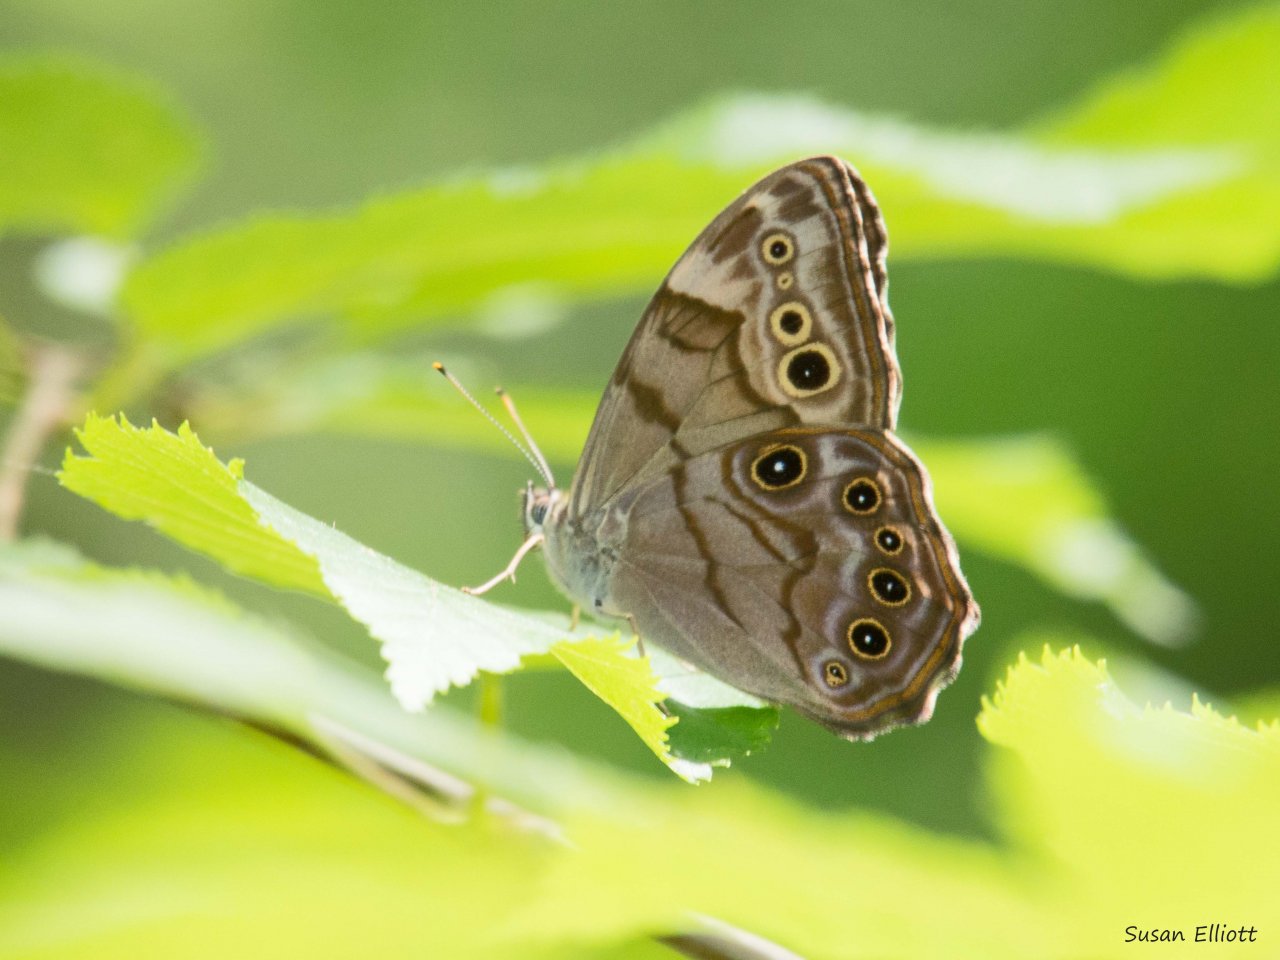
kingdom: Animalia
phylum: Arthropoda
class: Insecta
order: Lepidoptera
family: Nymphalidae
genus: Lethe
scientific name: Lethe anthedon
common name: Northern Pearly-Eye
